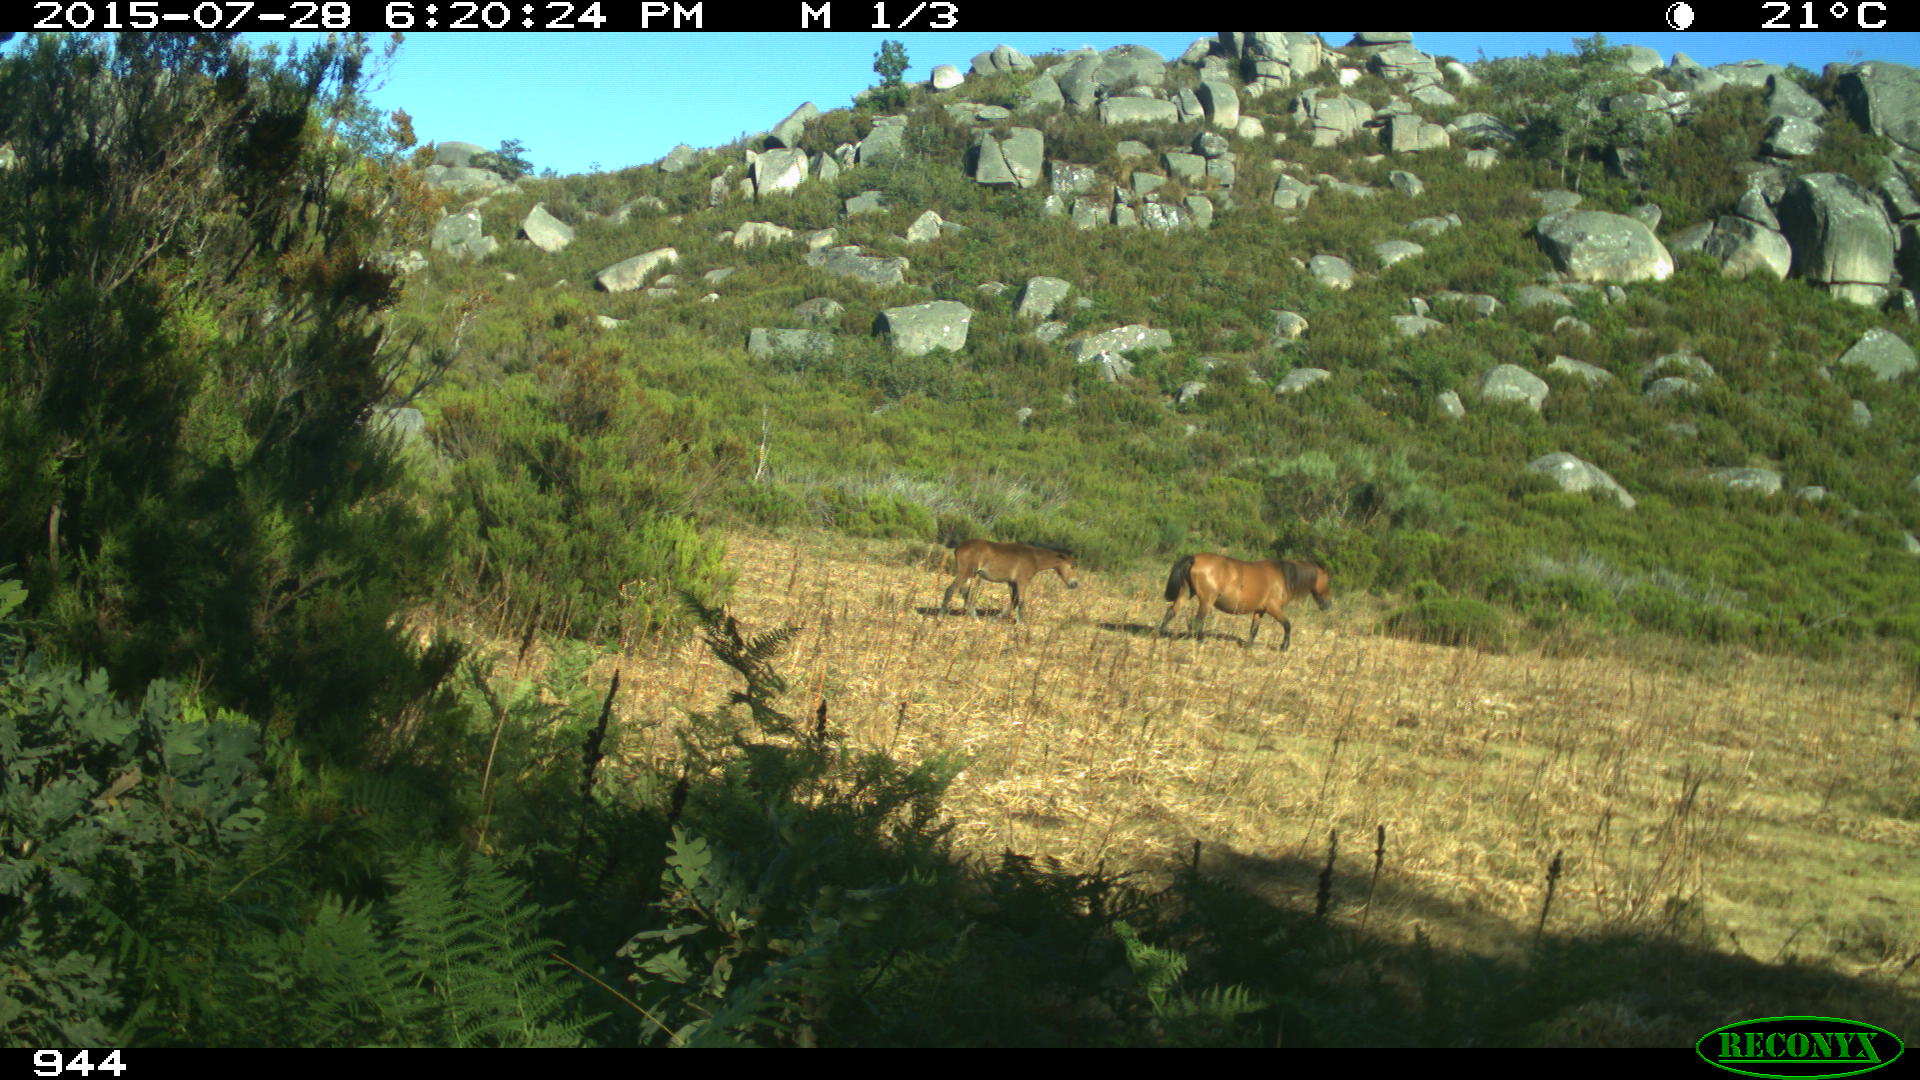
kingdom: Animalia
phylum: Chordata
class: Mammalia
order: Perissodactyla
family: Equidae
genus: Equus
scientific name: Equus caballus
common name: Horse
